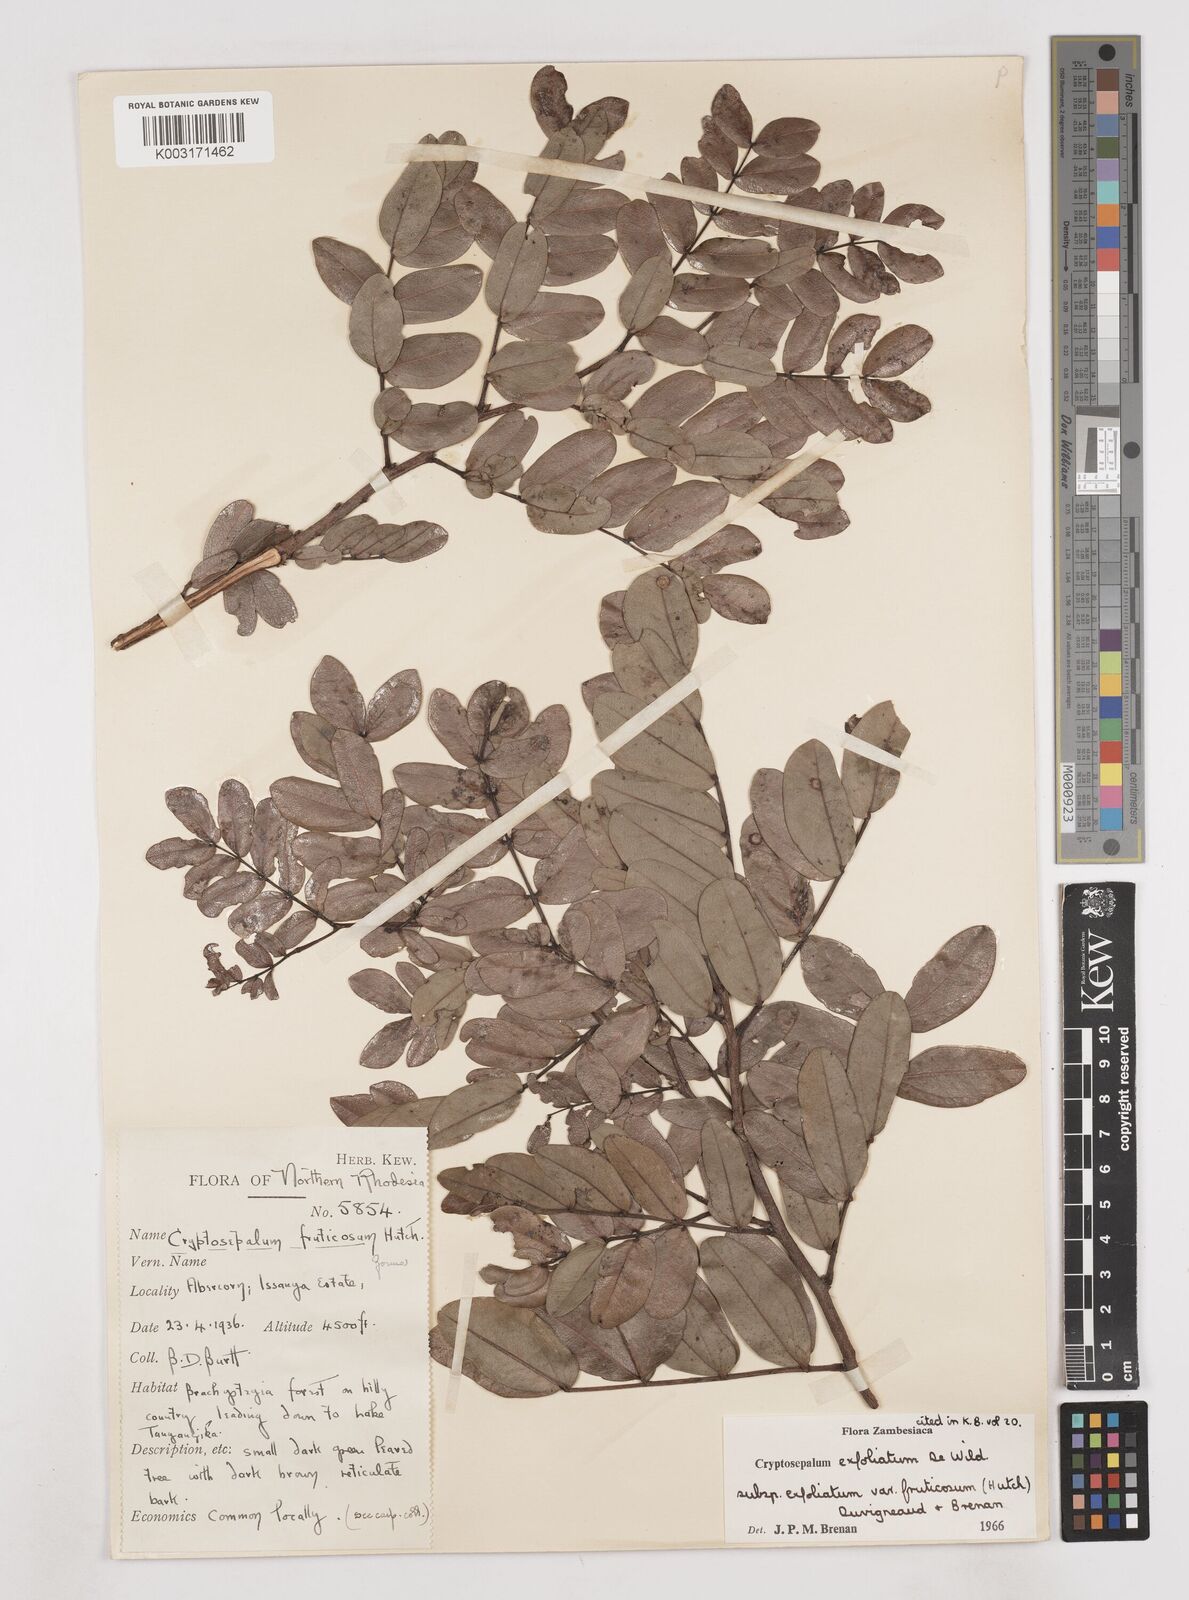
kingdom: Plantae
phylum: Tracheophyta
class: Magnoliopsida
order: Fabales
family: Fabaceae
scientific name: Fabaceae
